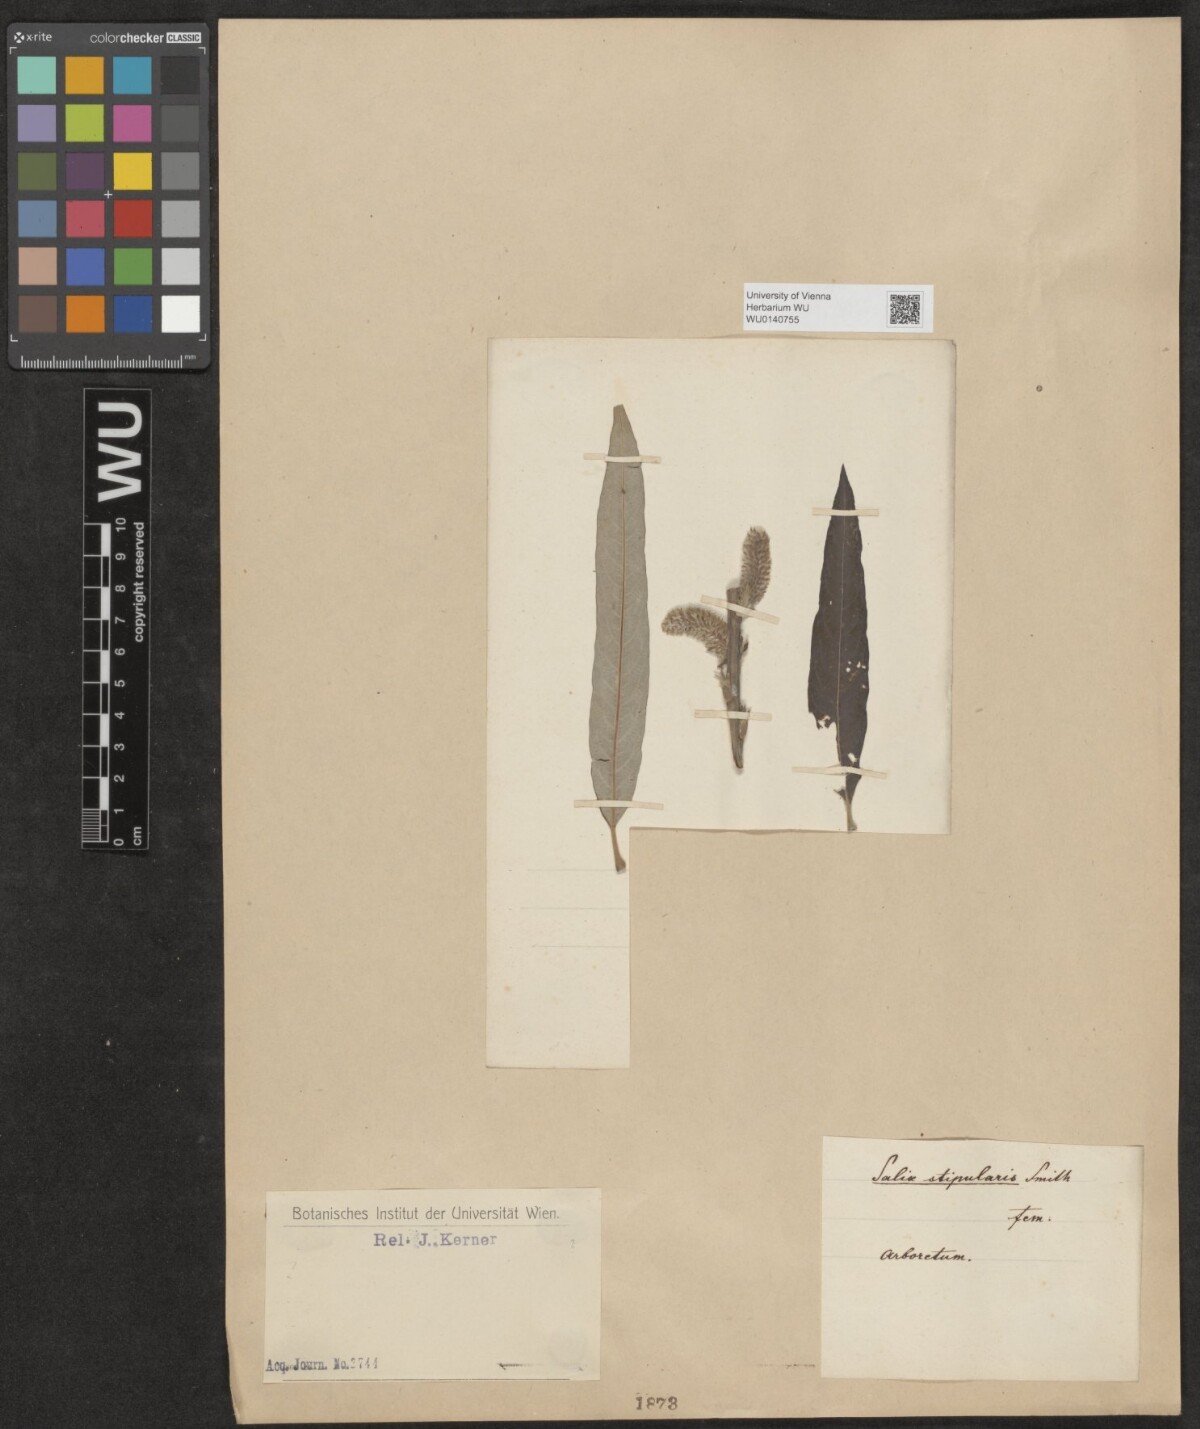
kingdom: Plantae
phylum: Tracheophyta
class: Magnoliopsida
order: Malpighiales
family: Salicaceae
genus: Salix
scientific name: Salix
